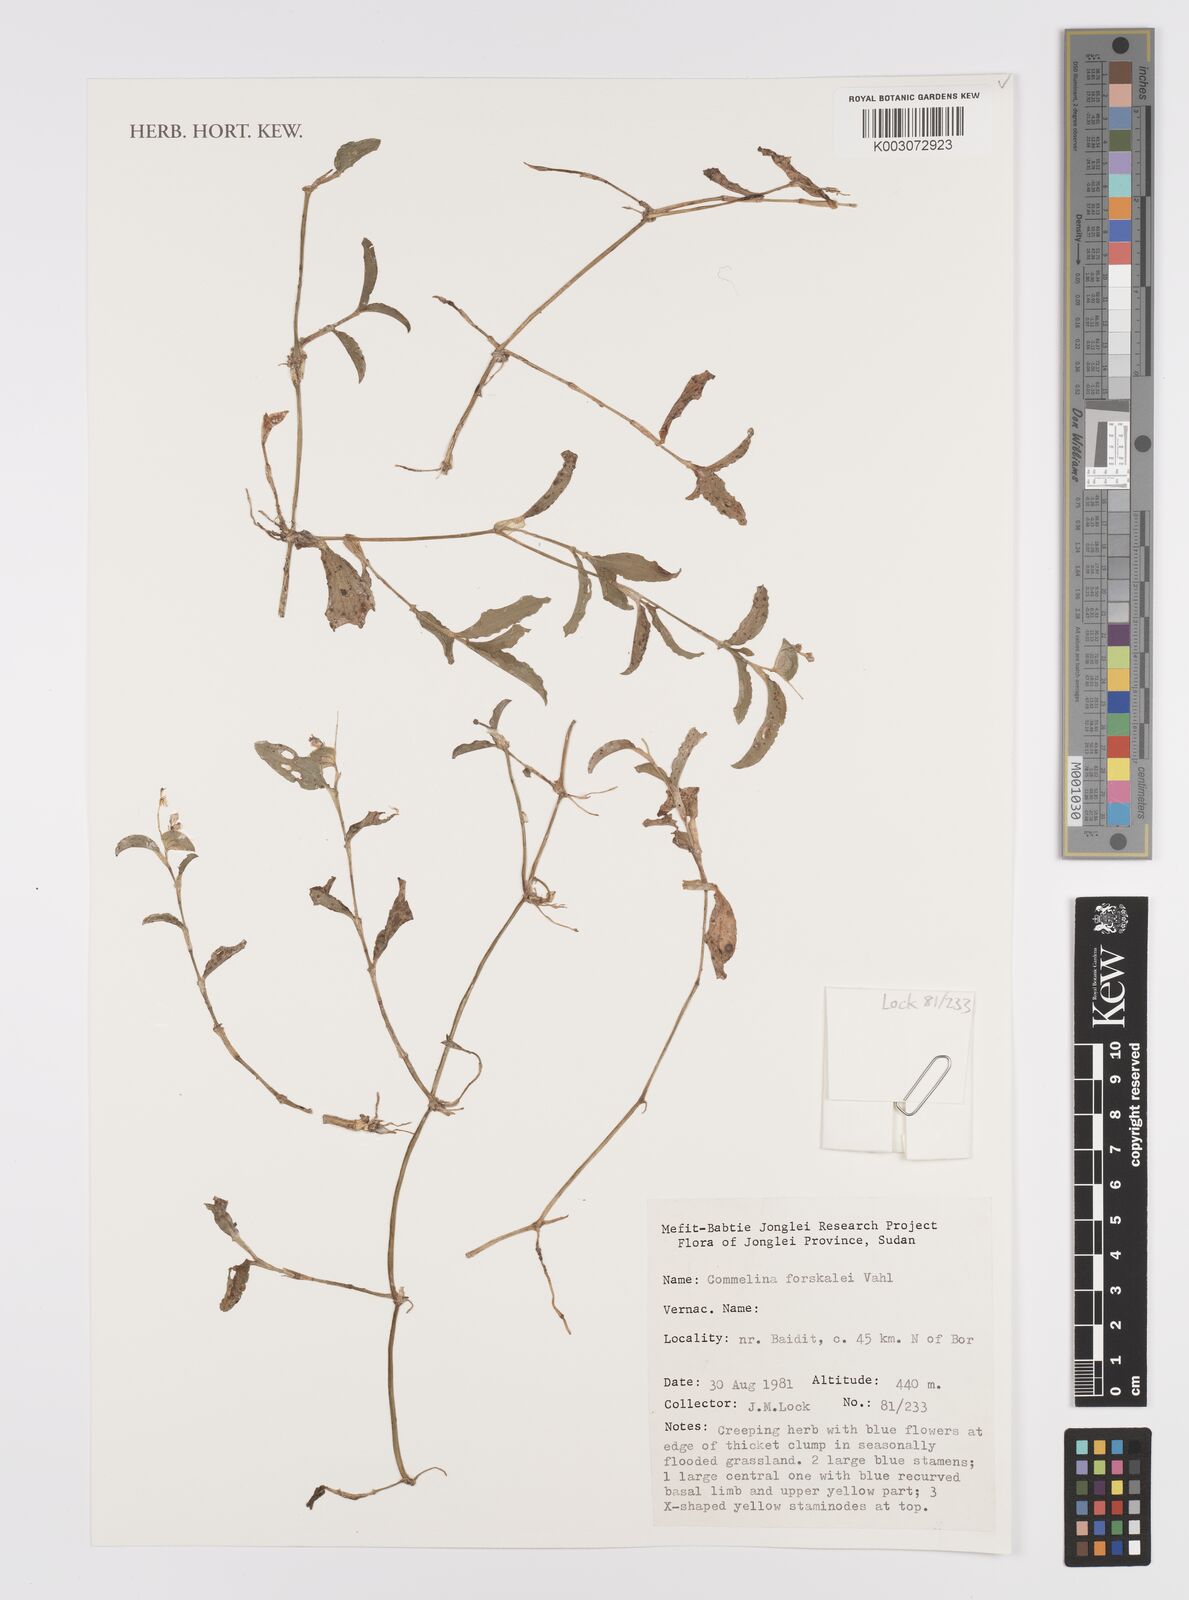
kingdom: Plantae
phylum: Tracheophyta
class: Liliopsida
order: Commelinales
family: Commelinaceae
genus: Commelina
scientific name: Commelina forskaolii
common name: Rat's ear
